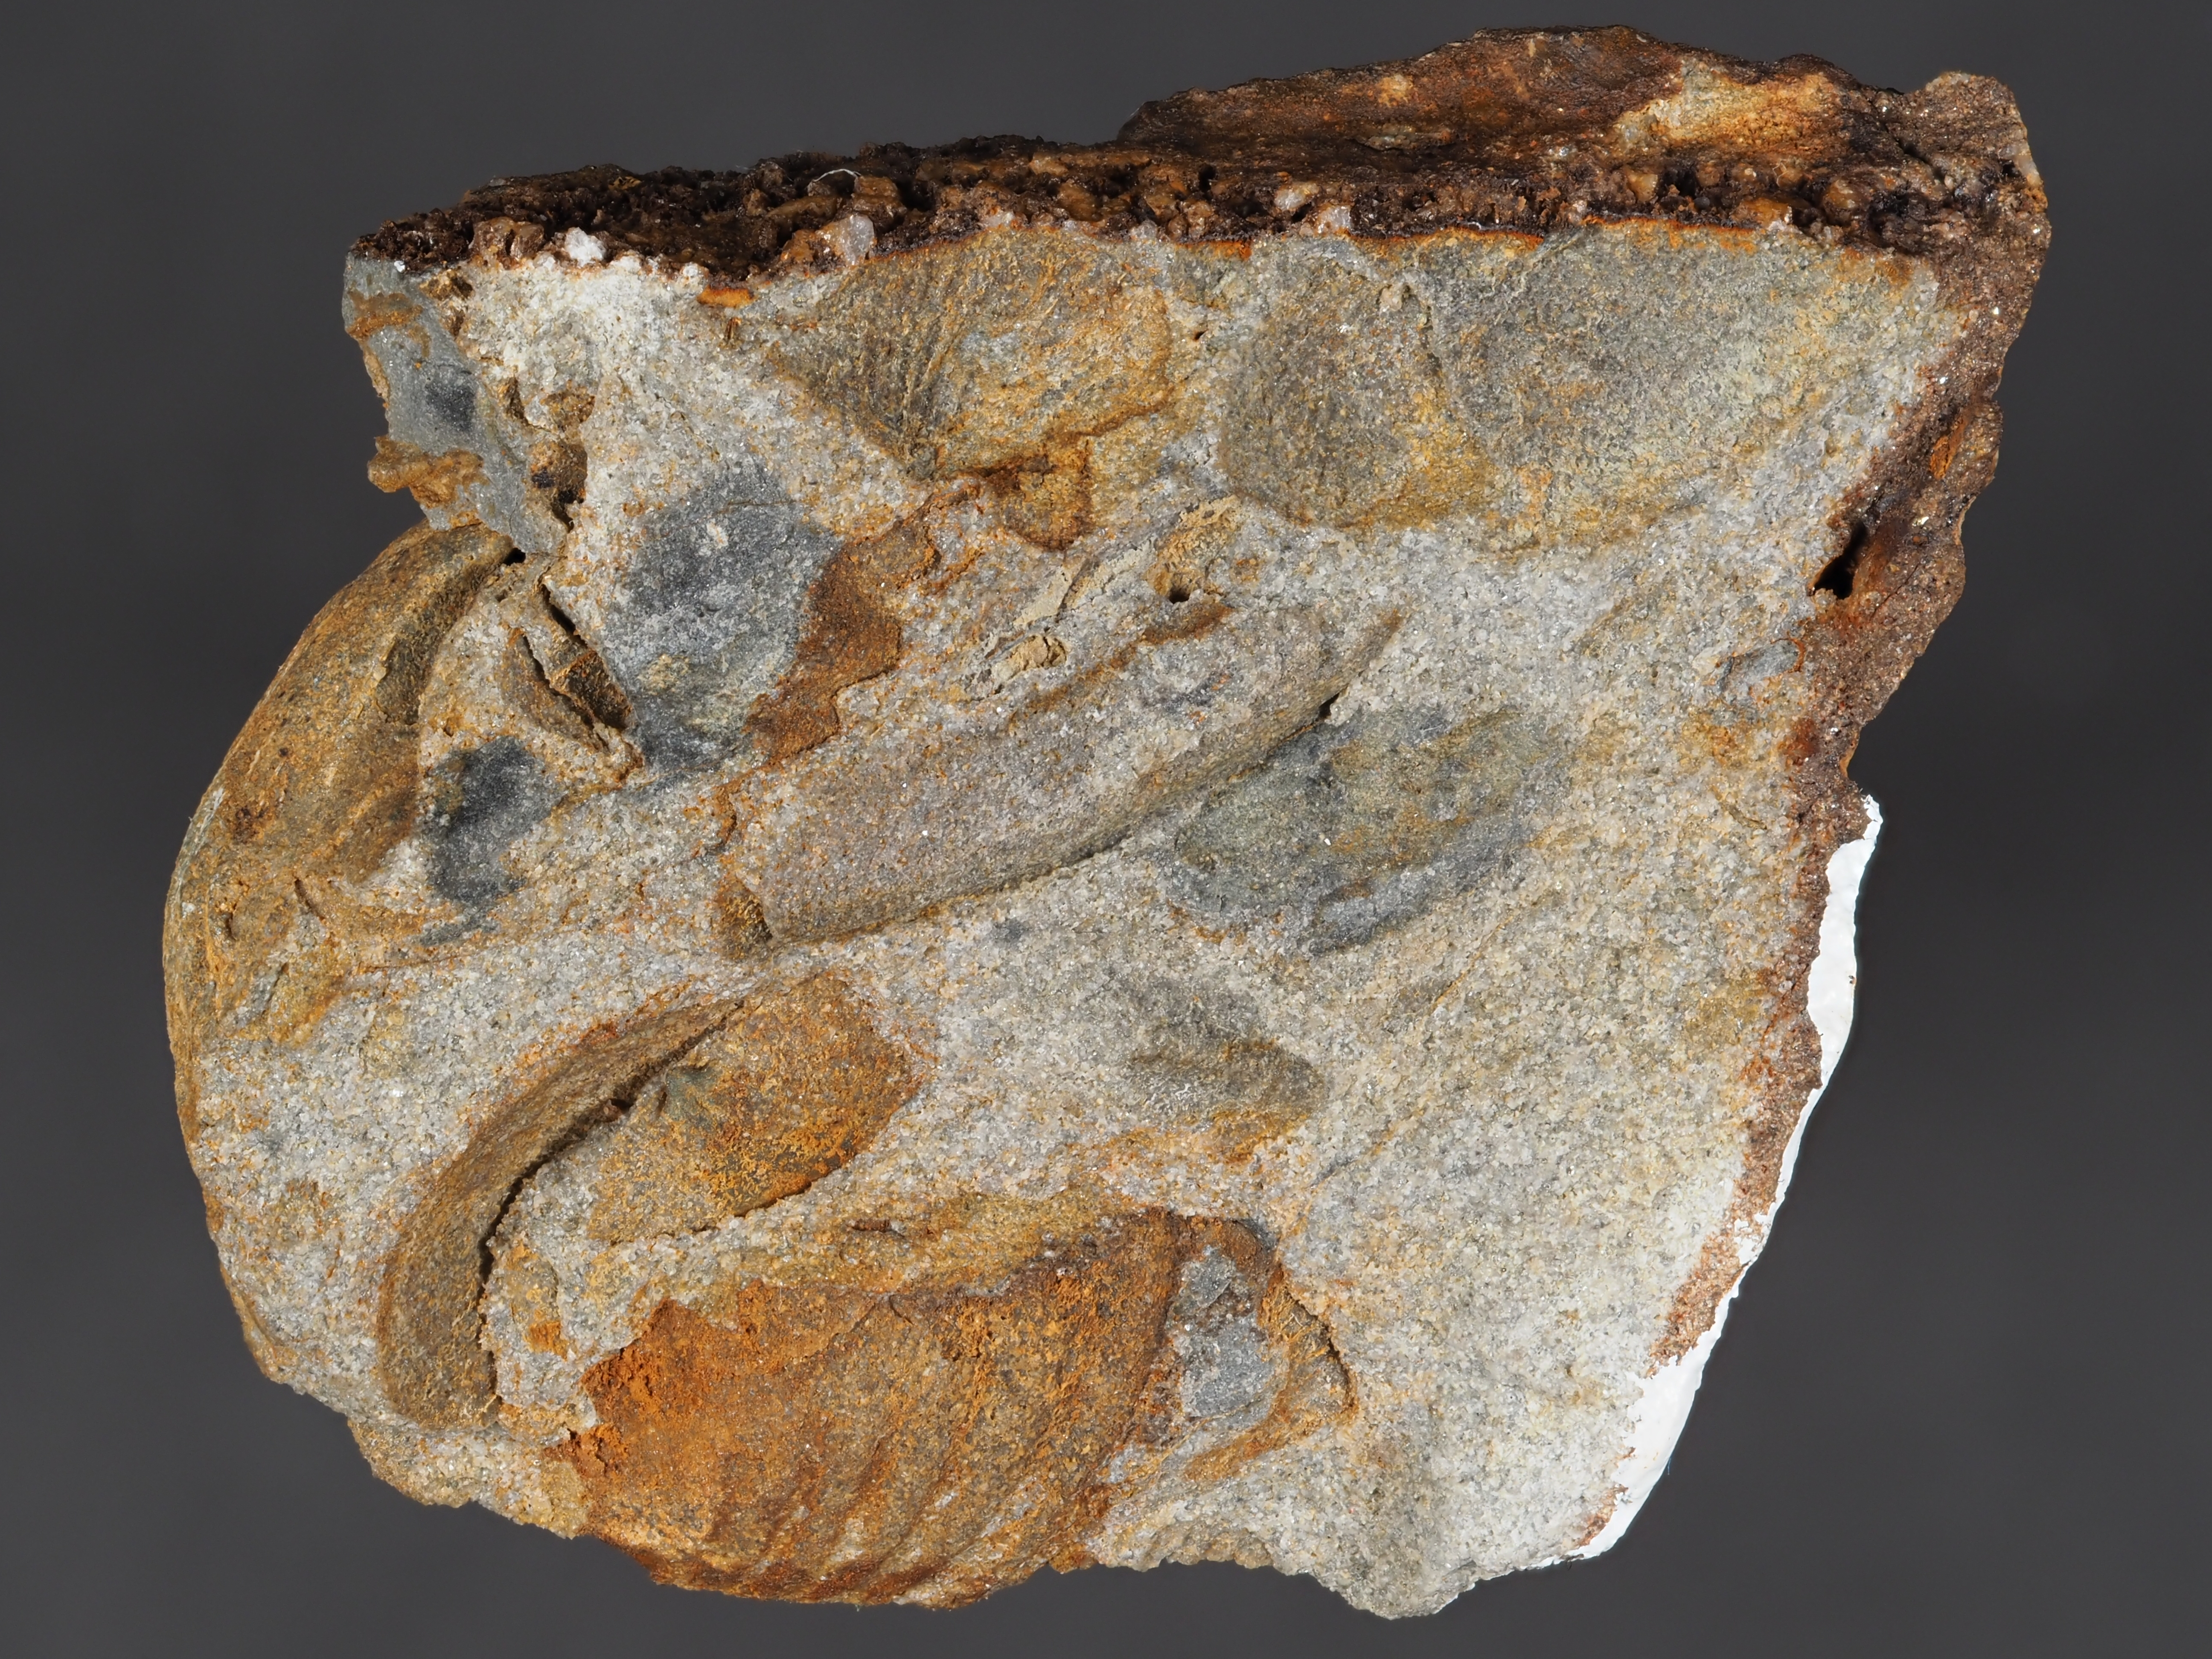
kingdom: Animalia
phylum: Brachiopoda
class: Rhynchonellata
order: Rhynchonellida
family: Trigonirhynchiidae
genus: Oligoptycherhynchus
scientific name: Oligoptycherhynchus
